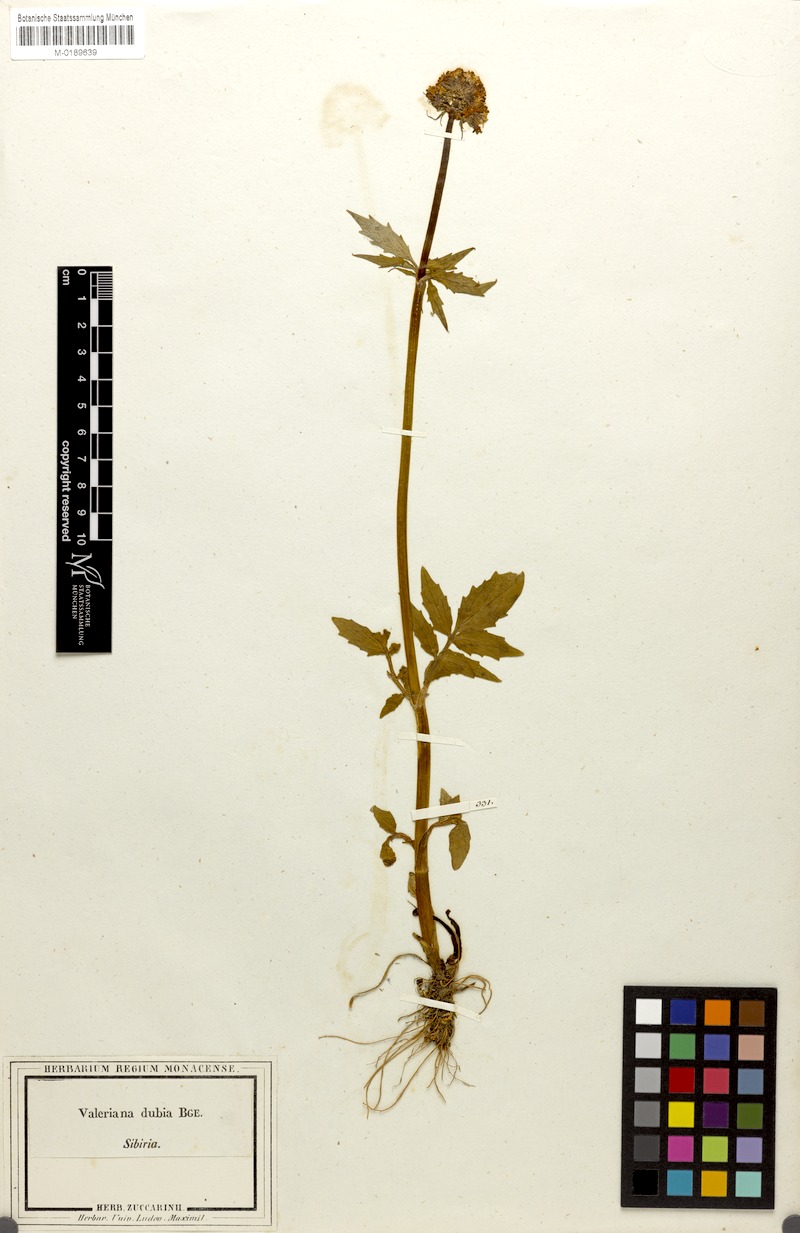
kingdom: Plantae
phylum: Tracheophyta
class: Magnoliopsida
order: Dipsacales
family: Caprifoliaceae
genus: Valeriana
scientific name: Valeriana dubia
